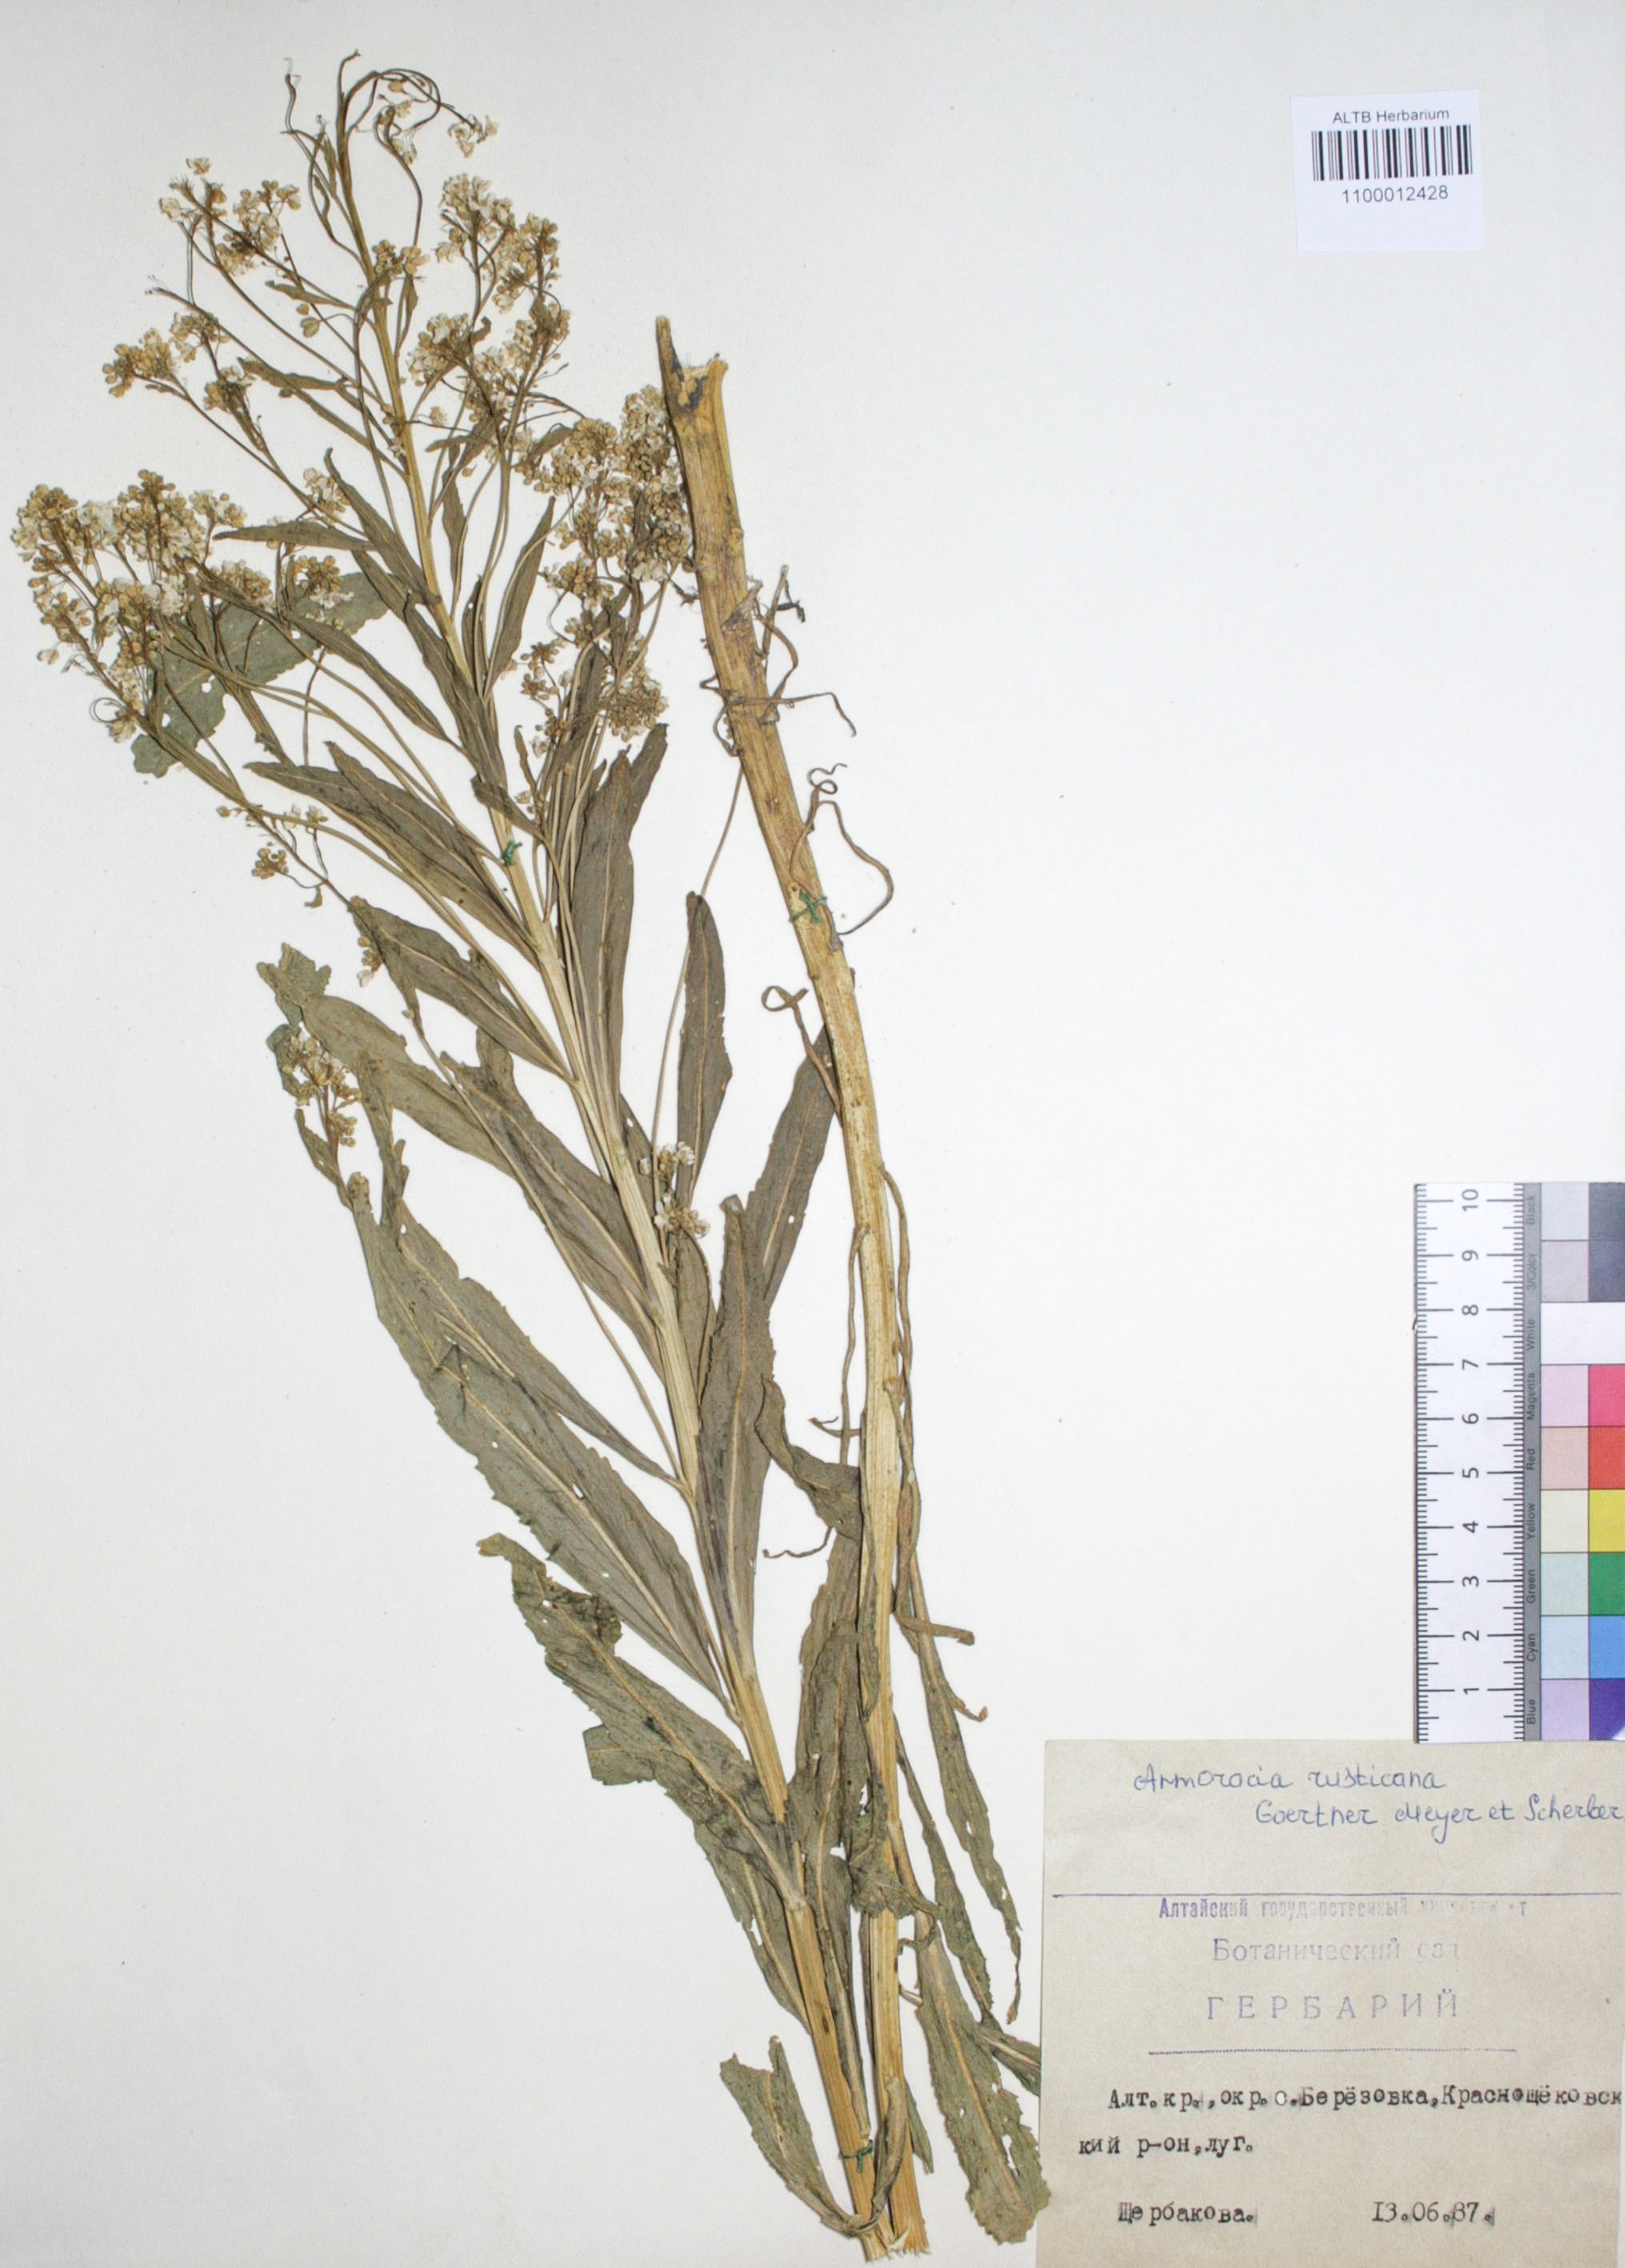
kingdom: Plantae
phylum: Tracheophyta
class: Magnoliopsida
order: Brassicales
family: Brassicaceae
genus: Armoracia
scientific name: Armoracia rusticana
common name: Horseradish
